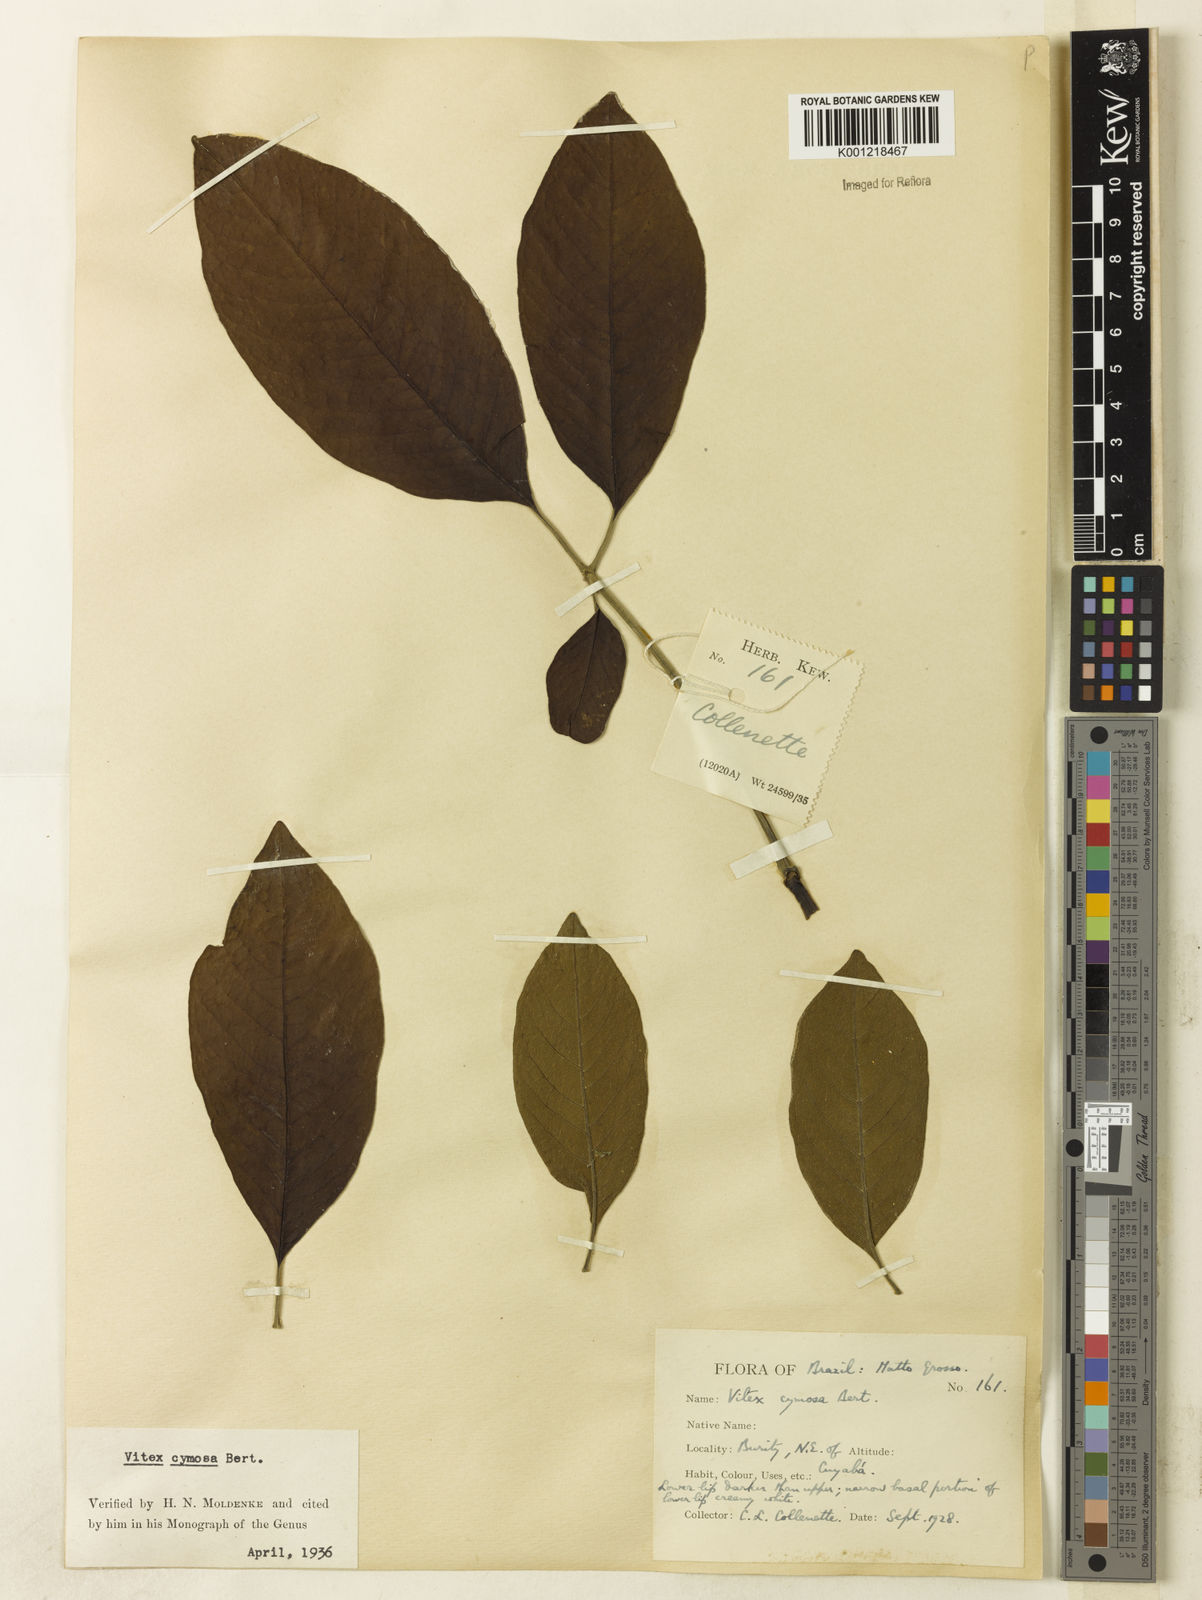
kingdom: Plantae
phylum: Tracheophyta
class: Magnoliopsida
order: Lamiales
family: Lamiaceae
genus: Vitex
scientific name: Vitex cymosa
